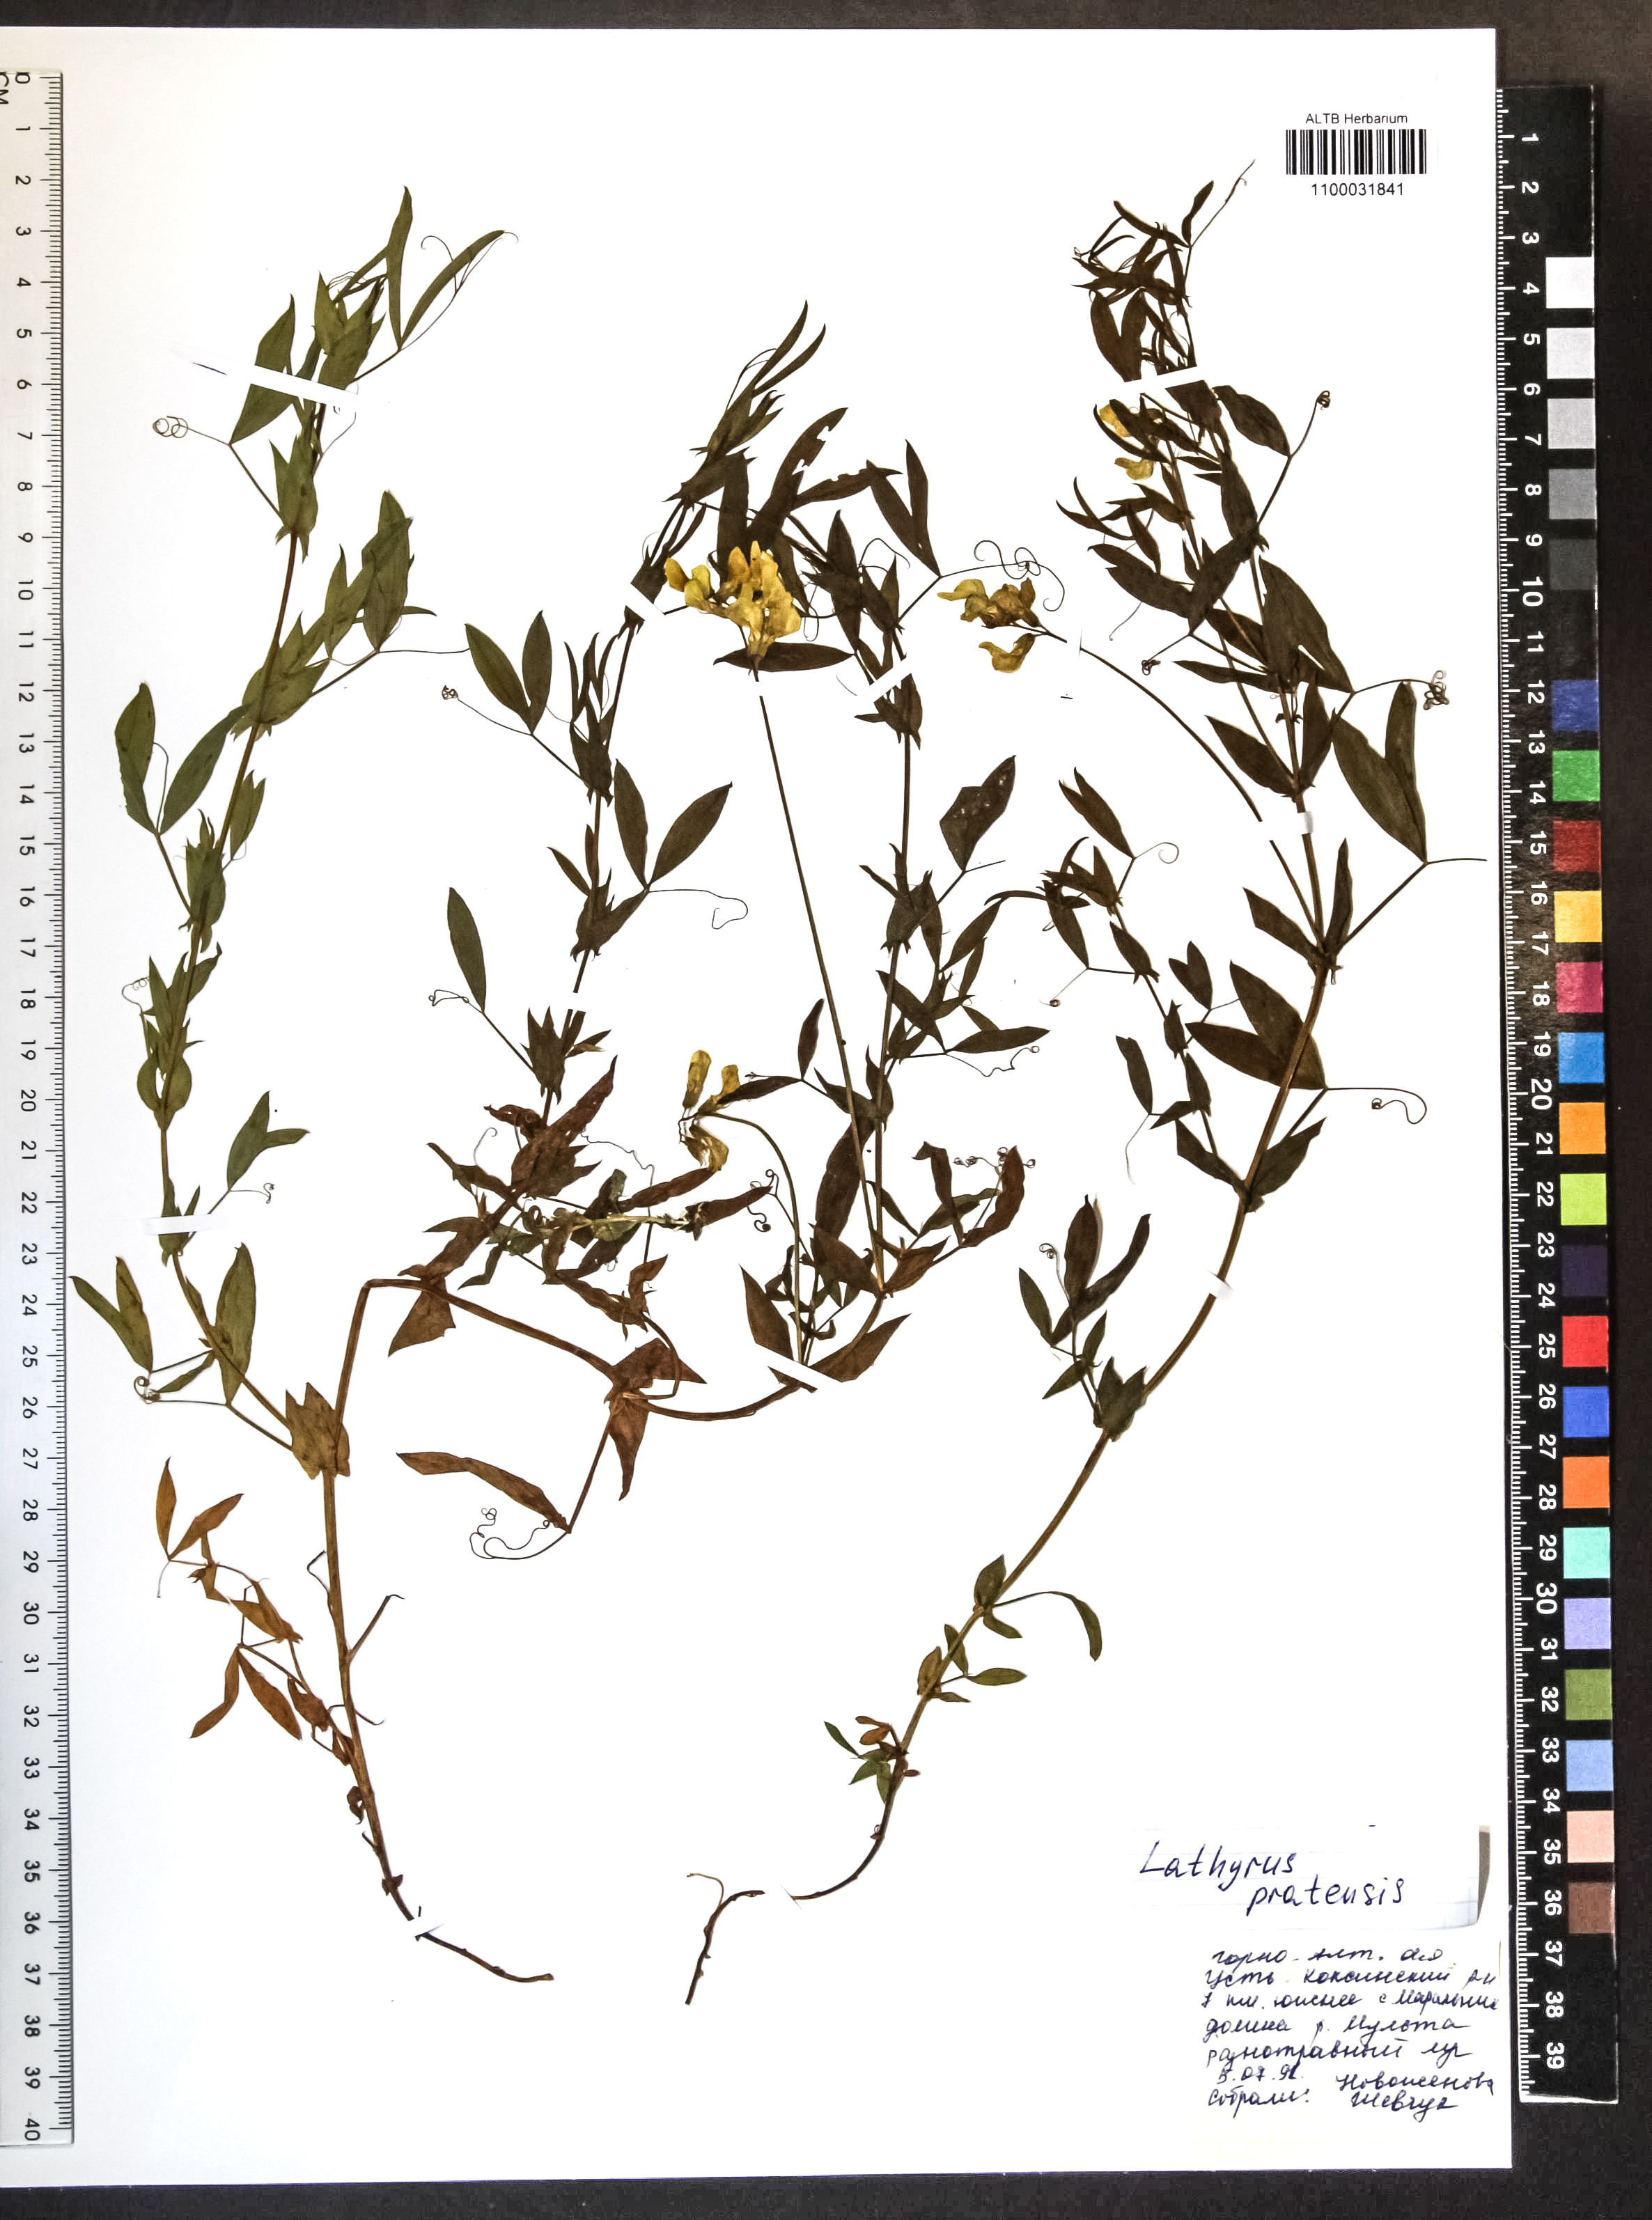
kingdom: Plantae
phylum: Tracheophyta
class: Magnoliopsida
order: Fabales
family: Fabaceae
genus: Lathyrus
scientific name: Lathyrus pratensis
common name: Meadow vetchling
